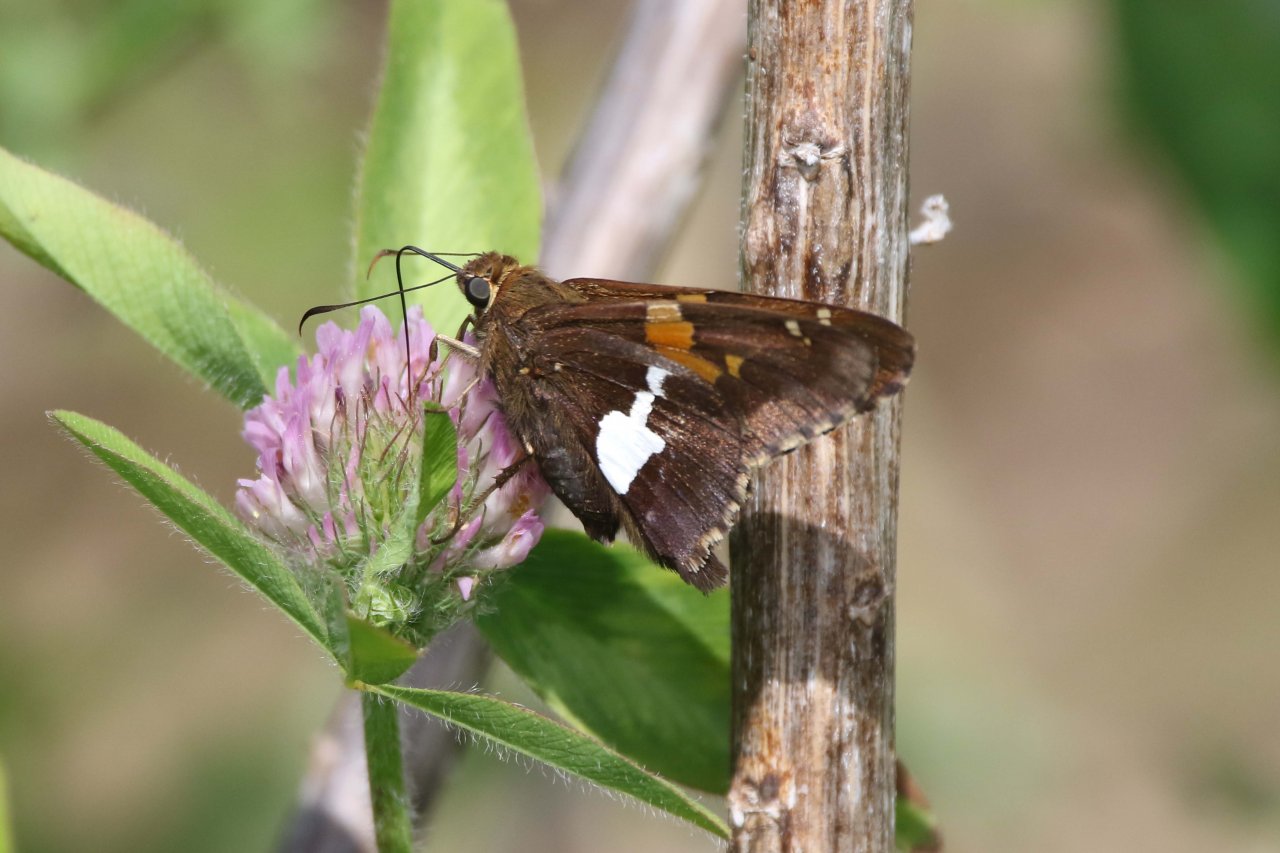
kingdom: Animalia
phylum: Arthropoda
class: Insecta
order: Lepidoptera
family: Hesperiidae
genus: Epargyreus
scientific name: Epargyreus clarus
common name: Silver-spotted Skipper
